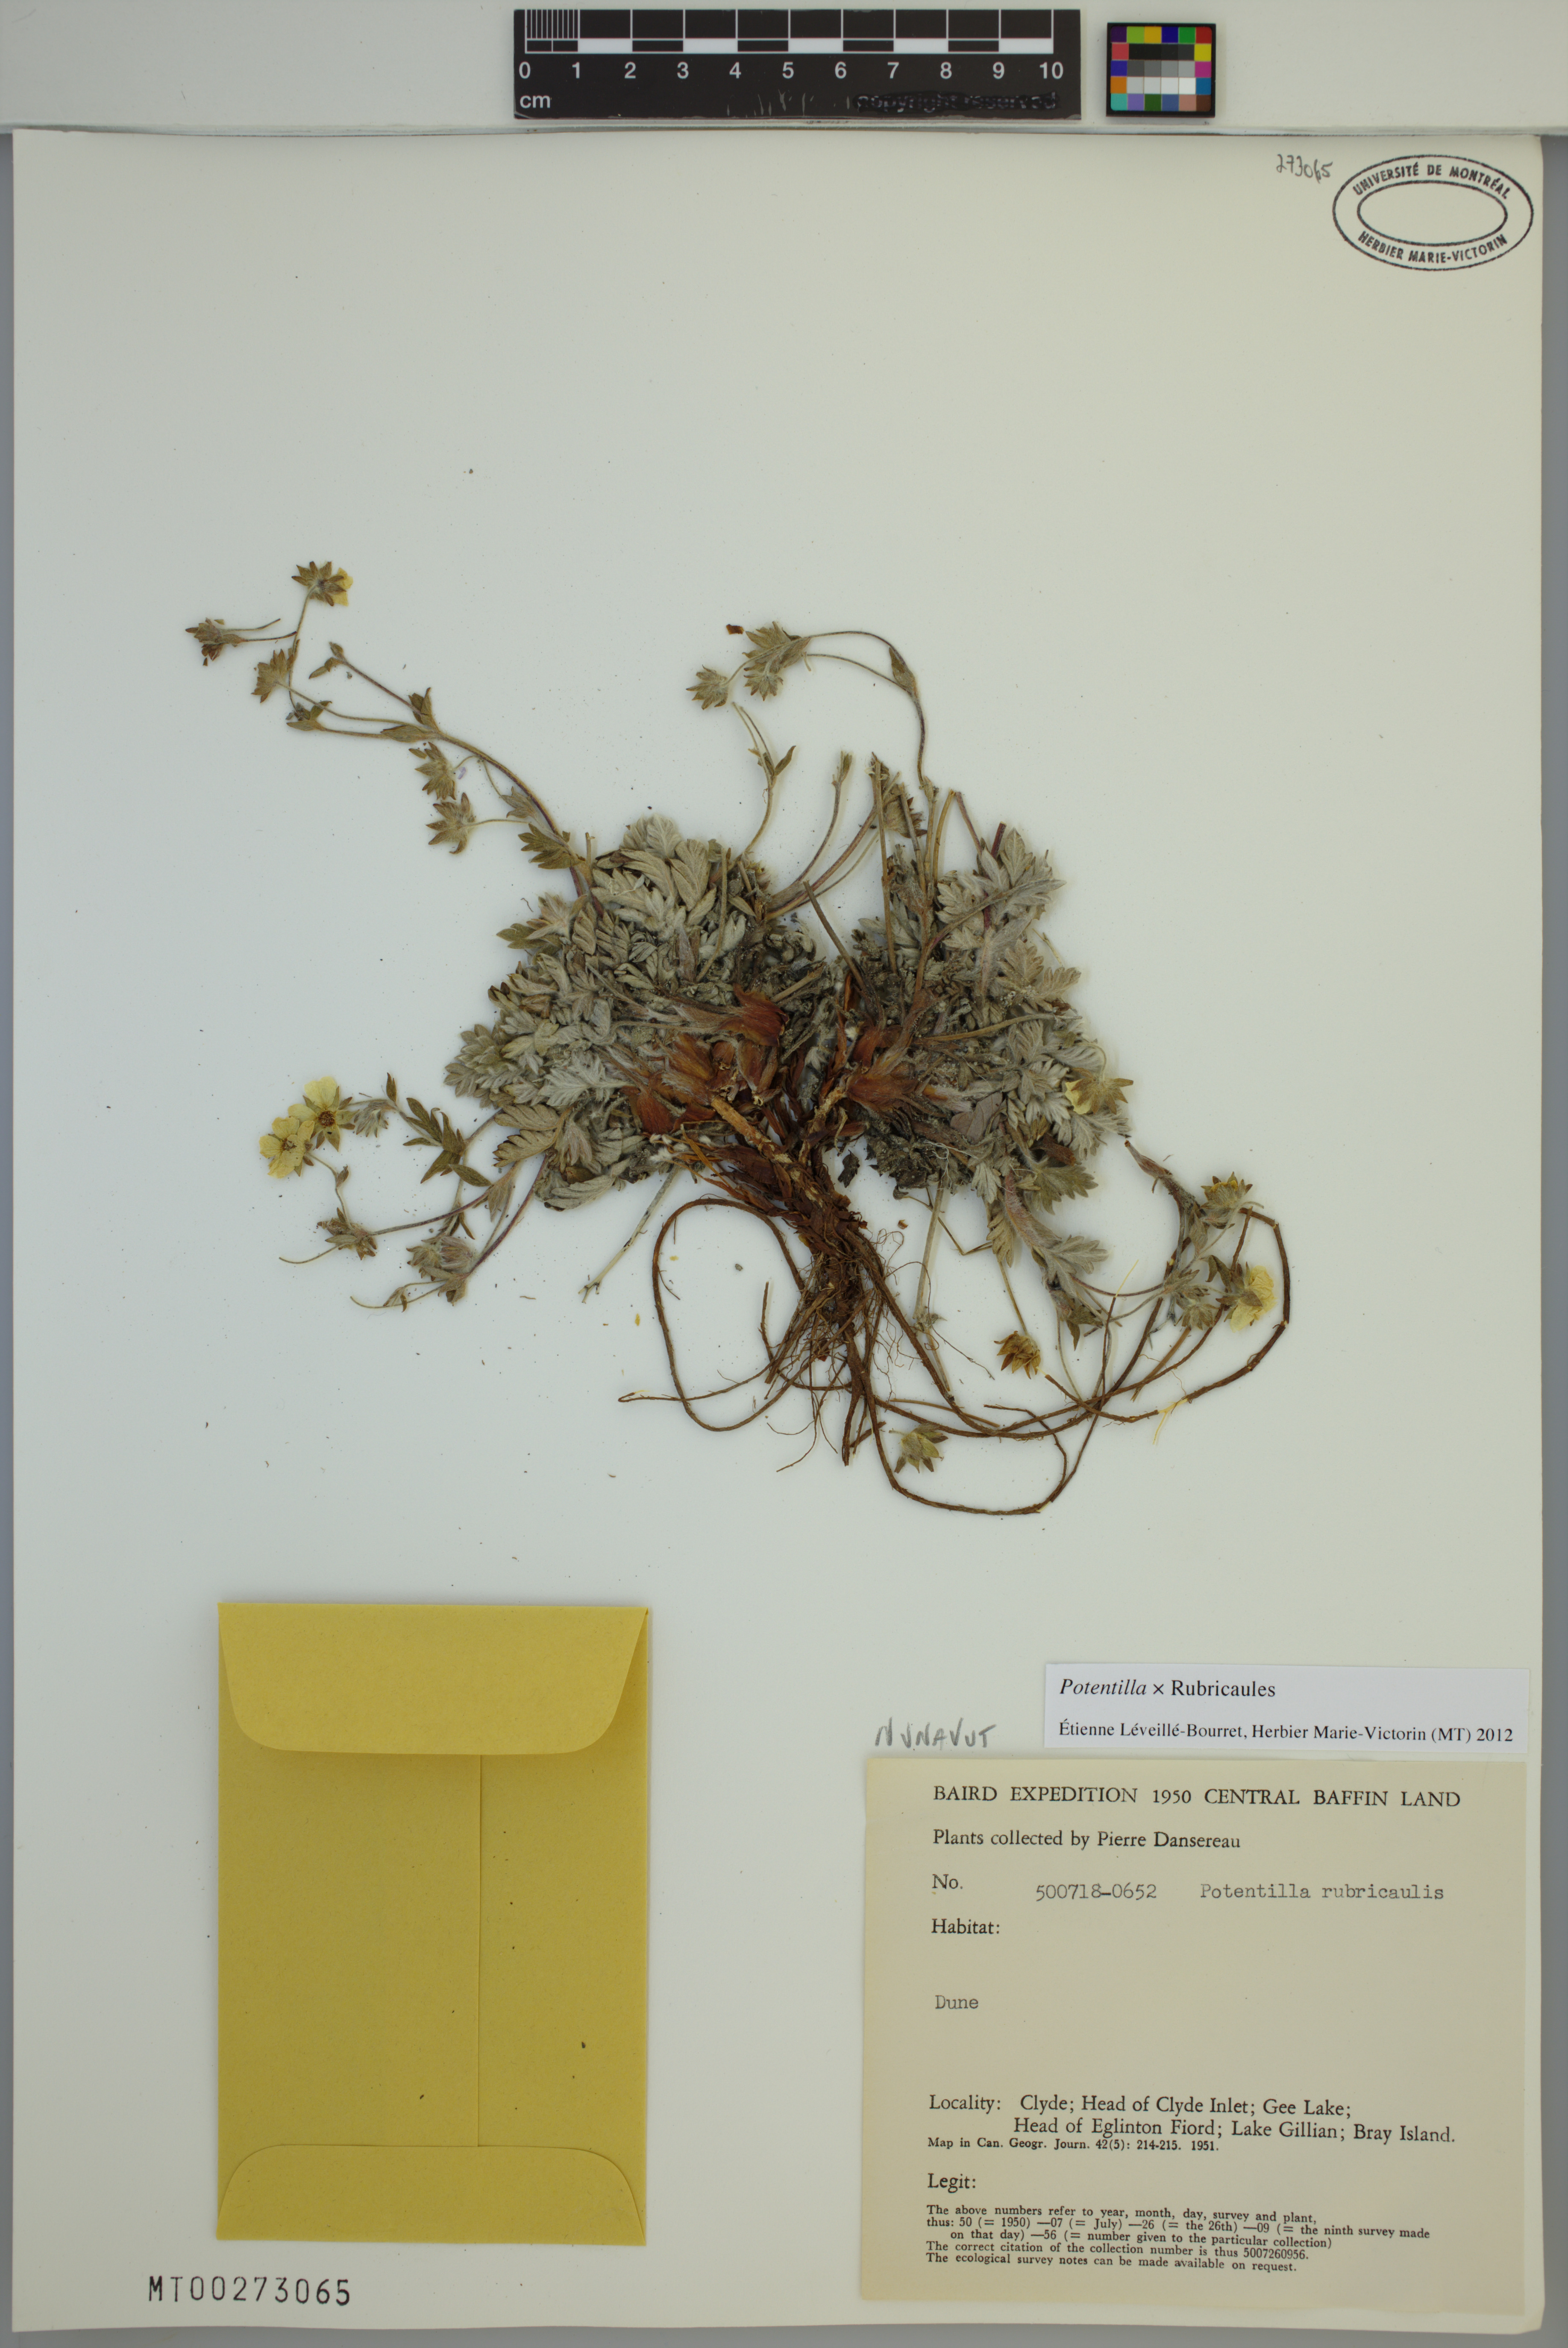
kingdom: Plantae
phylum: Tracheophyta
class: Magnoliopsida
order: Rosales
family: Rosaceae
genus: Potentilla
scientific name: Potentilla rubricaulis
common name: Red-stemmed cinquefoil
